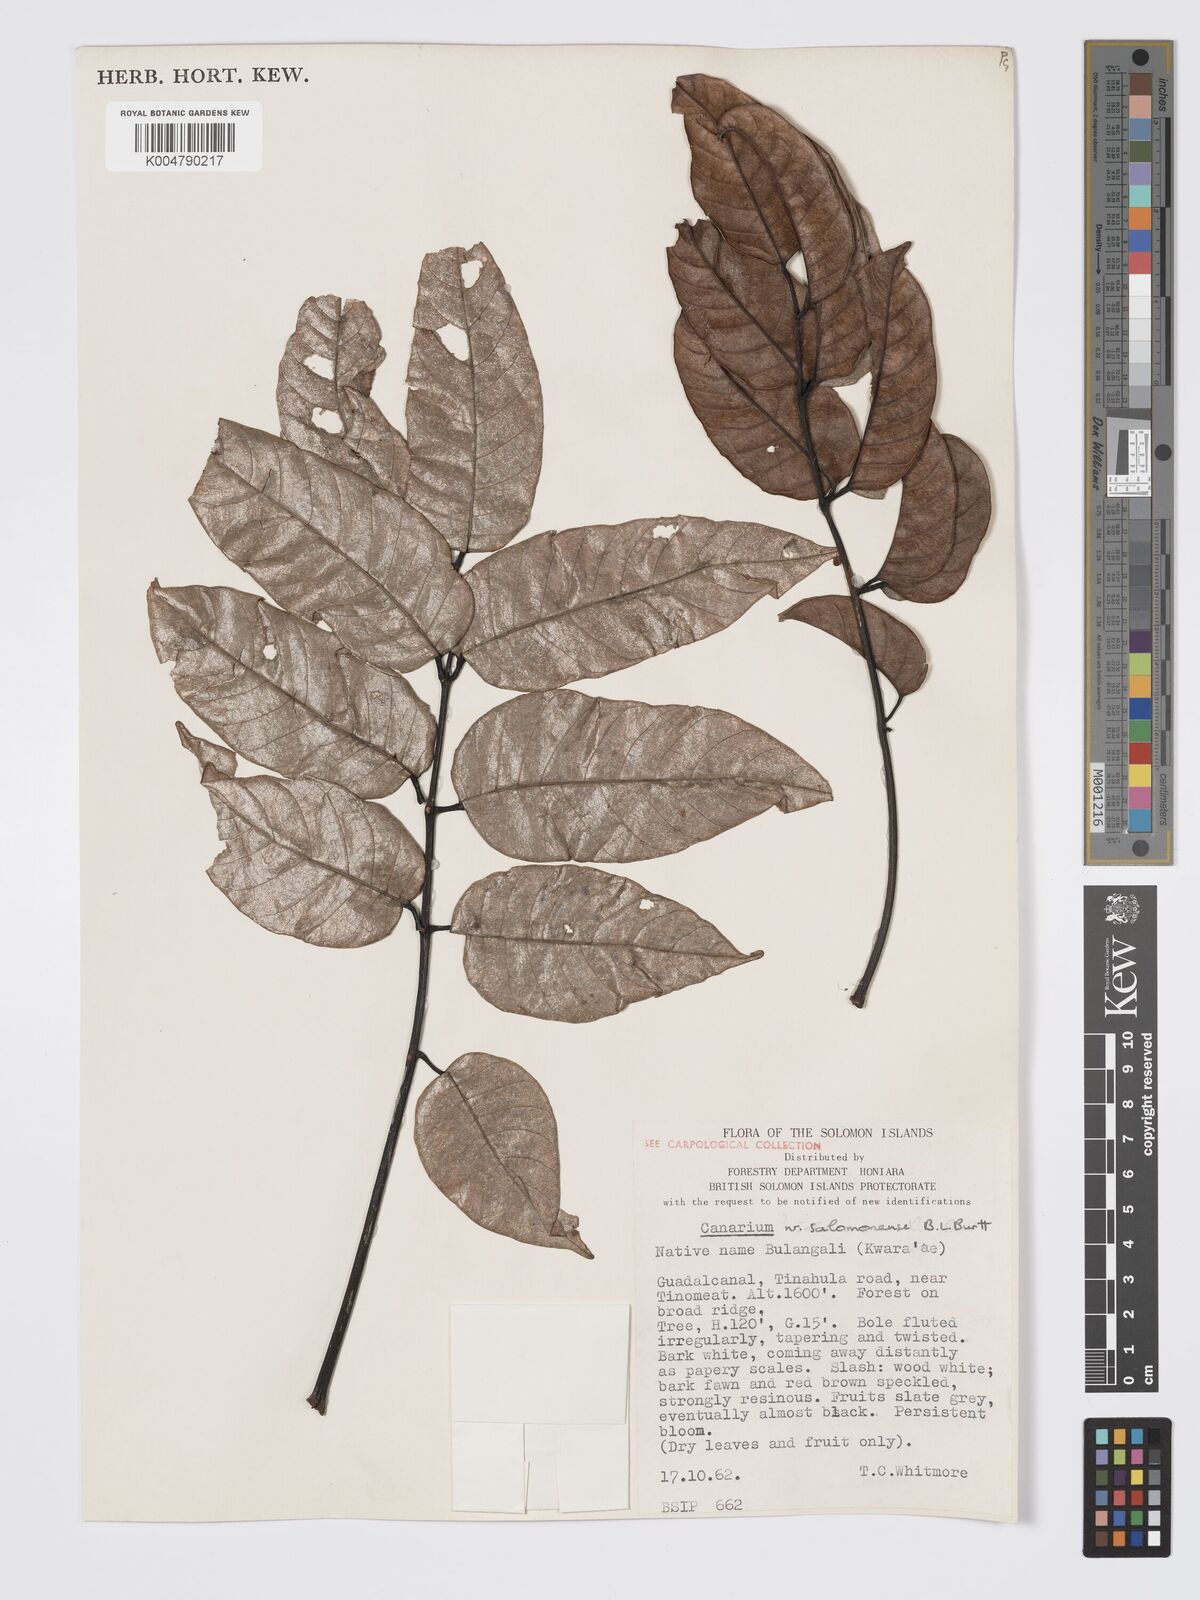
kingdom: Plantae
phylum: Tracheophyta
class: Magnoliopsida
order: Sapindales
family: Burseraceae
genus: Canarium
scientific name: Canarium salomonense
